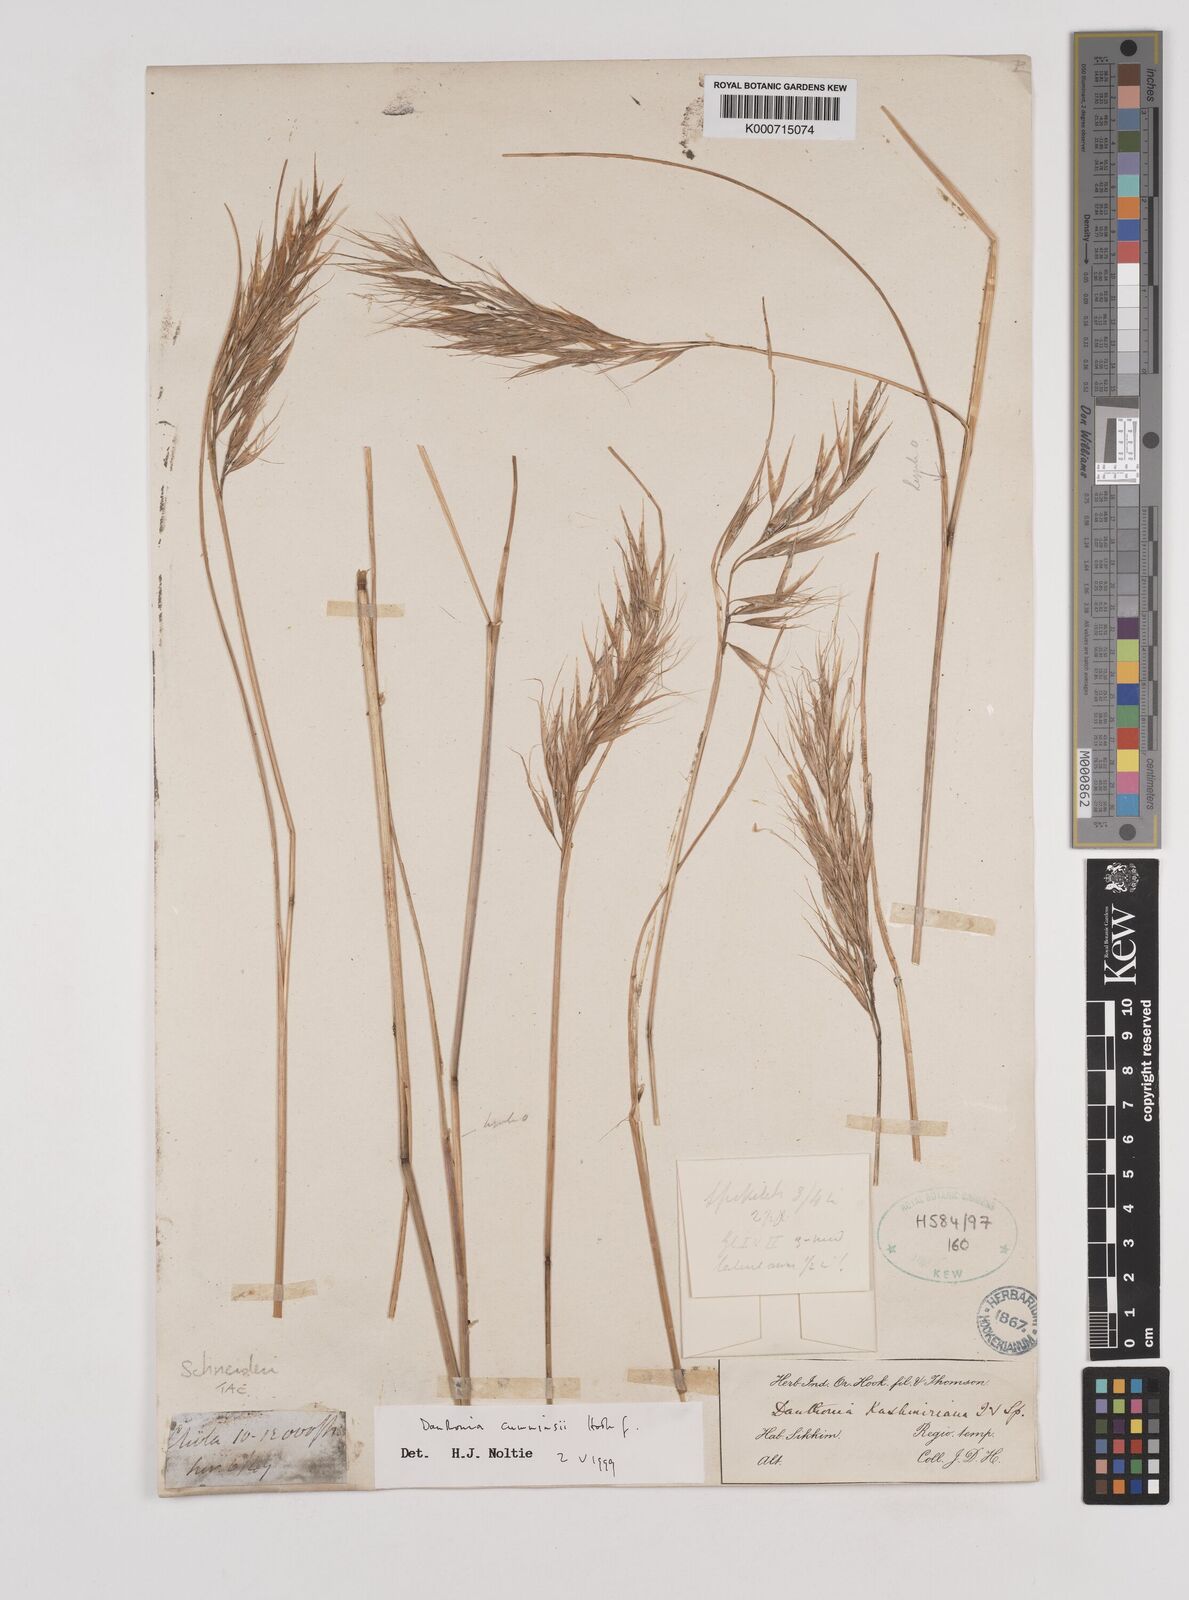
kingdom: Plantae
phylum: Tracheophyta
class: Liliopsida
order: Poales
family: Poaceae
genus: Rytidosperma
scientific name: Rytidosperma
